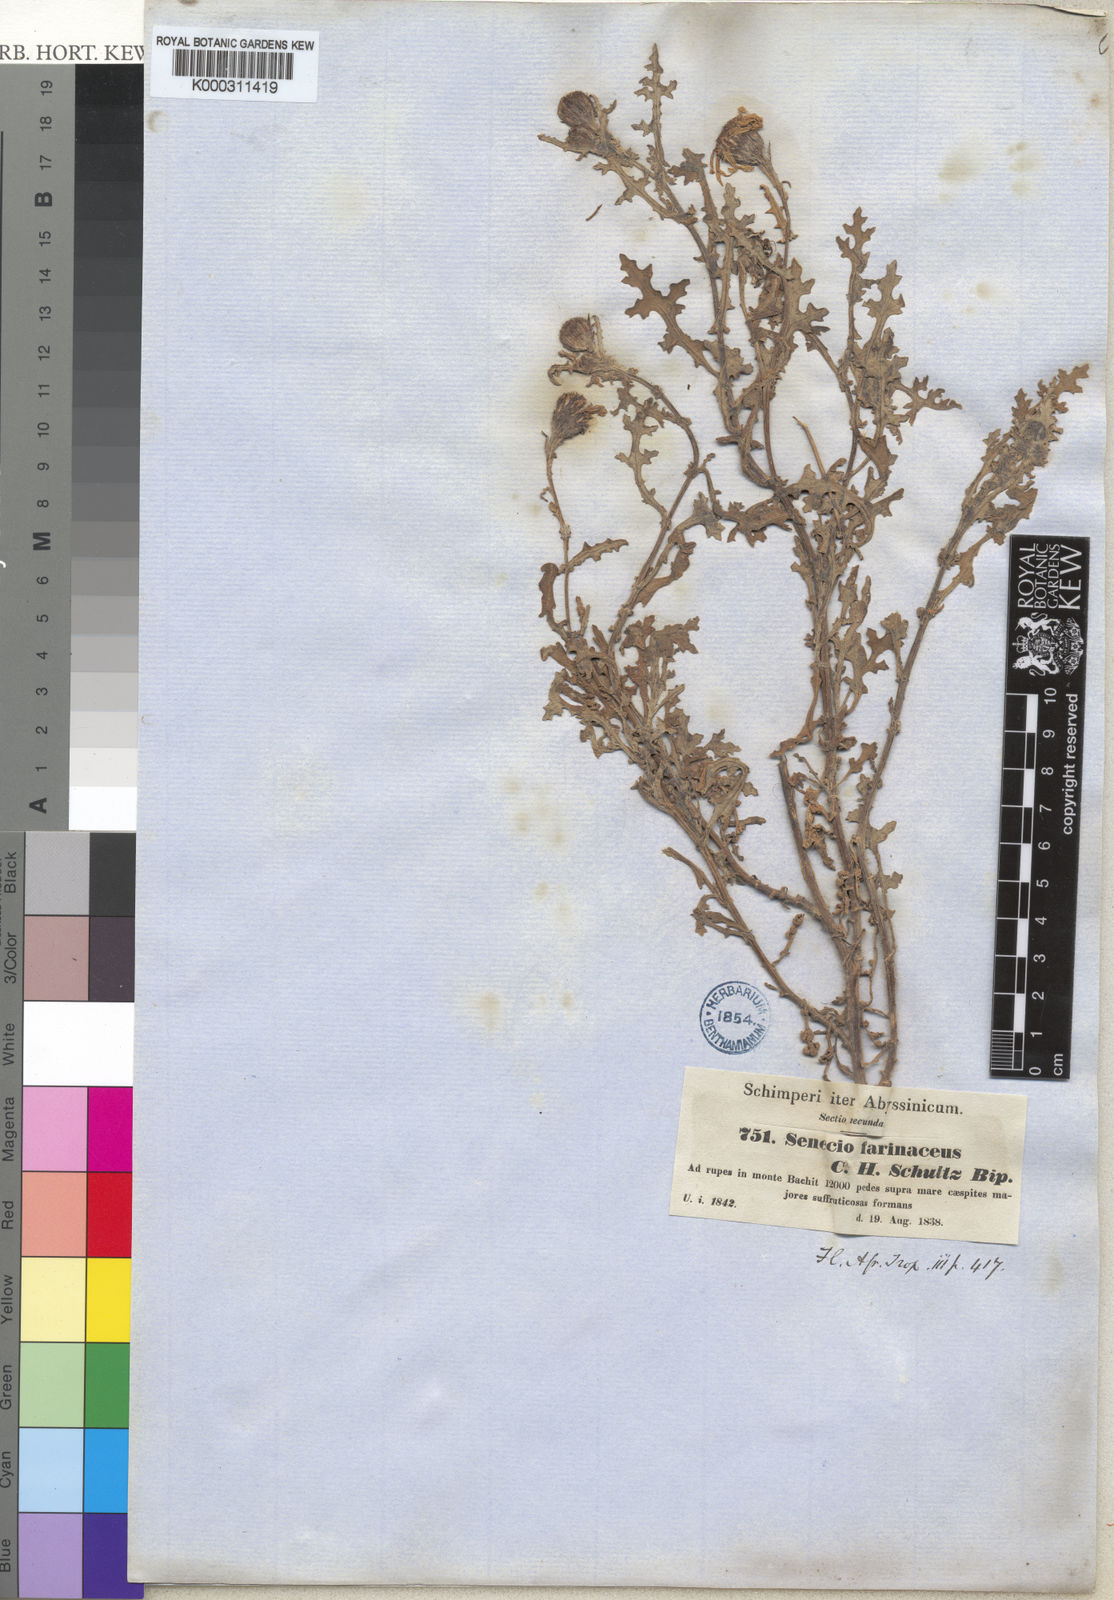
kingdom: Plantae
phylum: Tracheophyta
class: Magnoliopsida
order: Asterales
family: Asteraceae
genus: Senecio
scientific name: Senecio farinaceus
